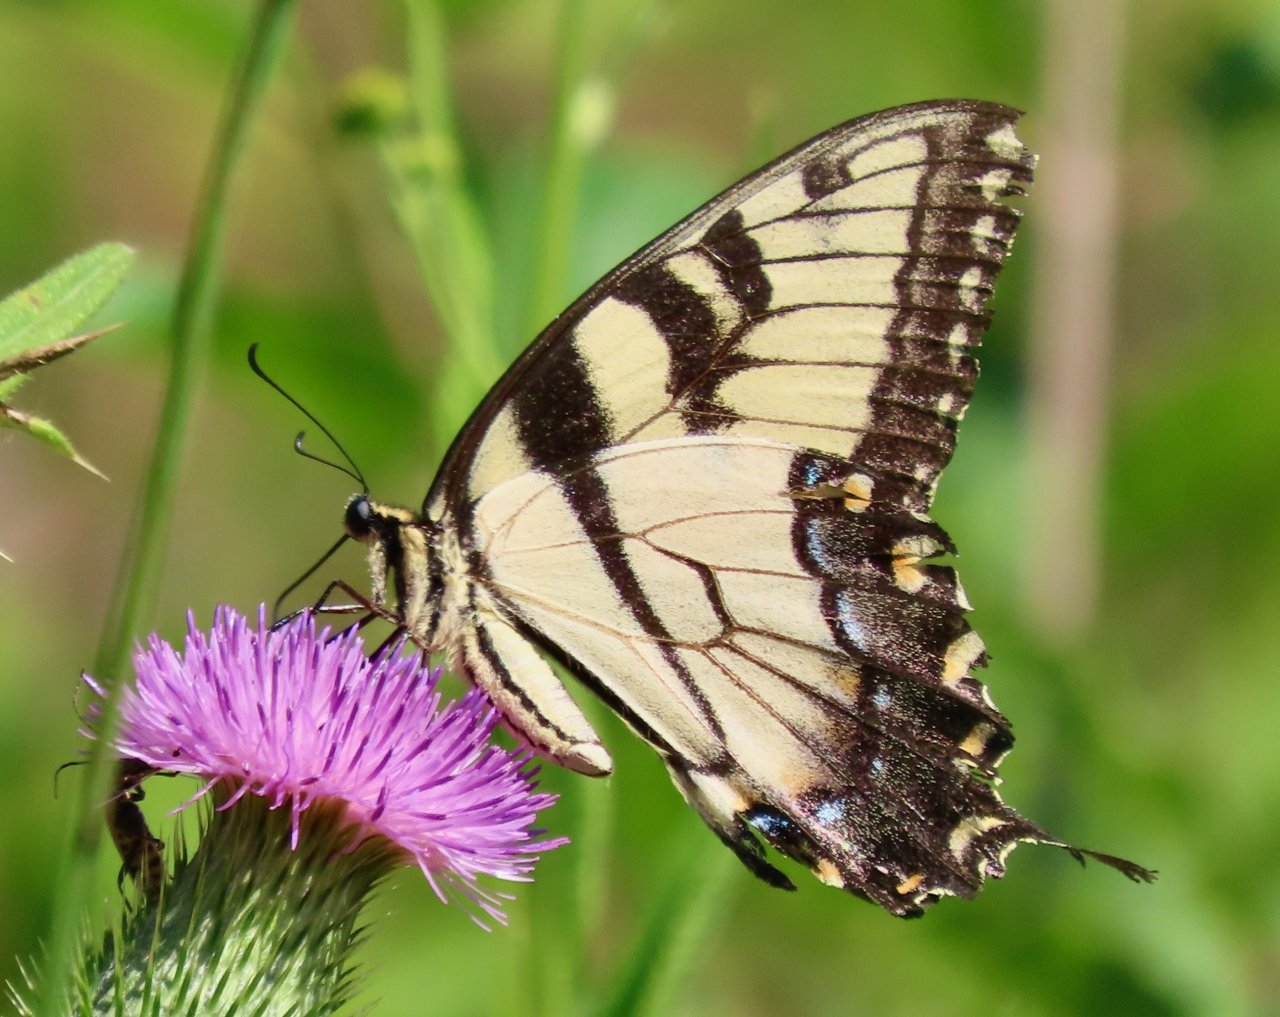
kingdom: Animalia
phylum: Arthropoda
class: Insecta
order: Lepidoptera
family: Papilionidae
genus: Pterourus
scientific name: Pterourus glaucus
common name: Eastern Tiger Swallowtail
